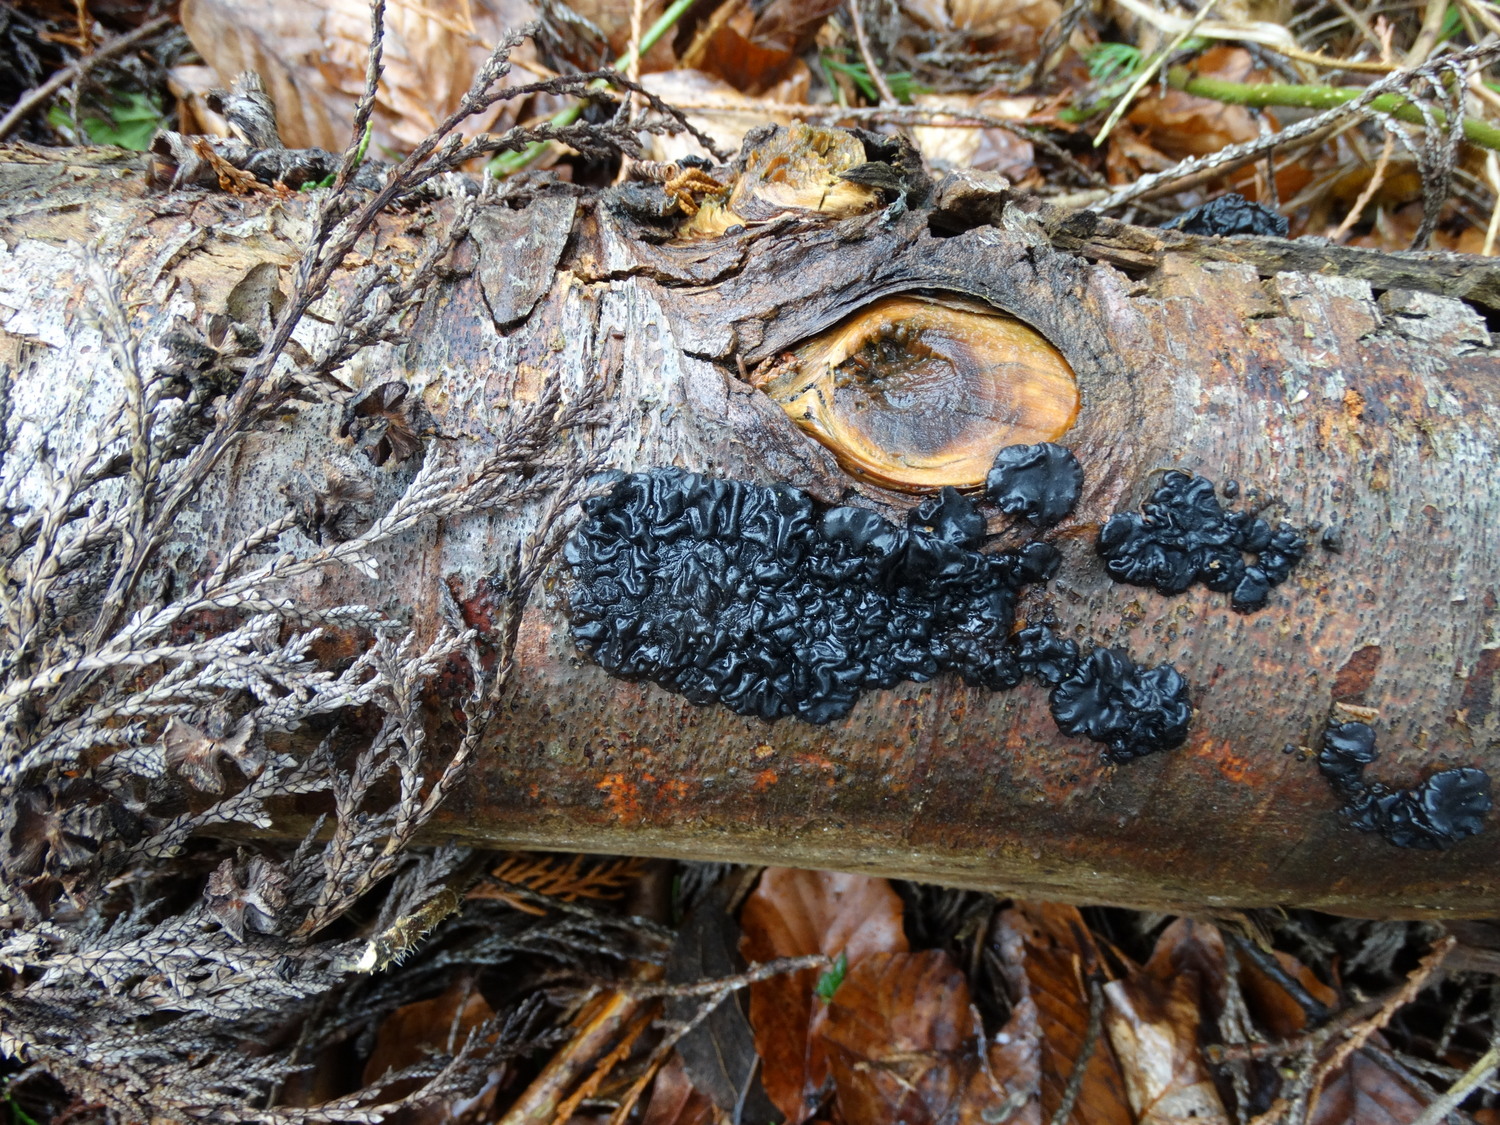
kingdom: Fungi
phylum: Basidiomycota
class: Agaricomycetes
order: Auriculariales
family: Auriculariaceae
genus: Exidia
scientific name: Exidia nigricans
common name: almindelig bævretop
